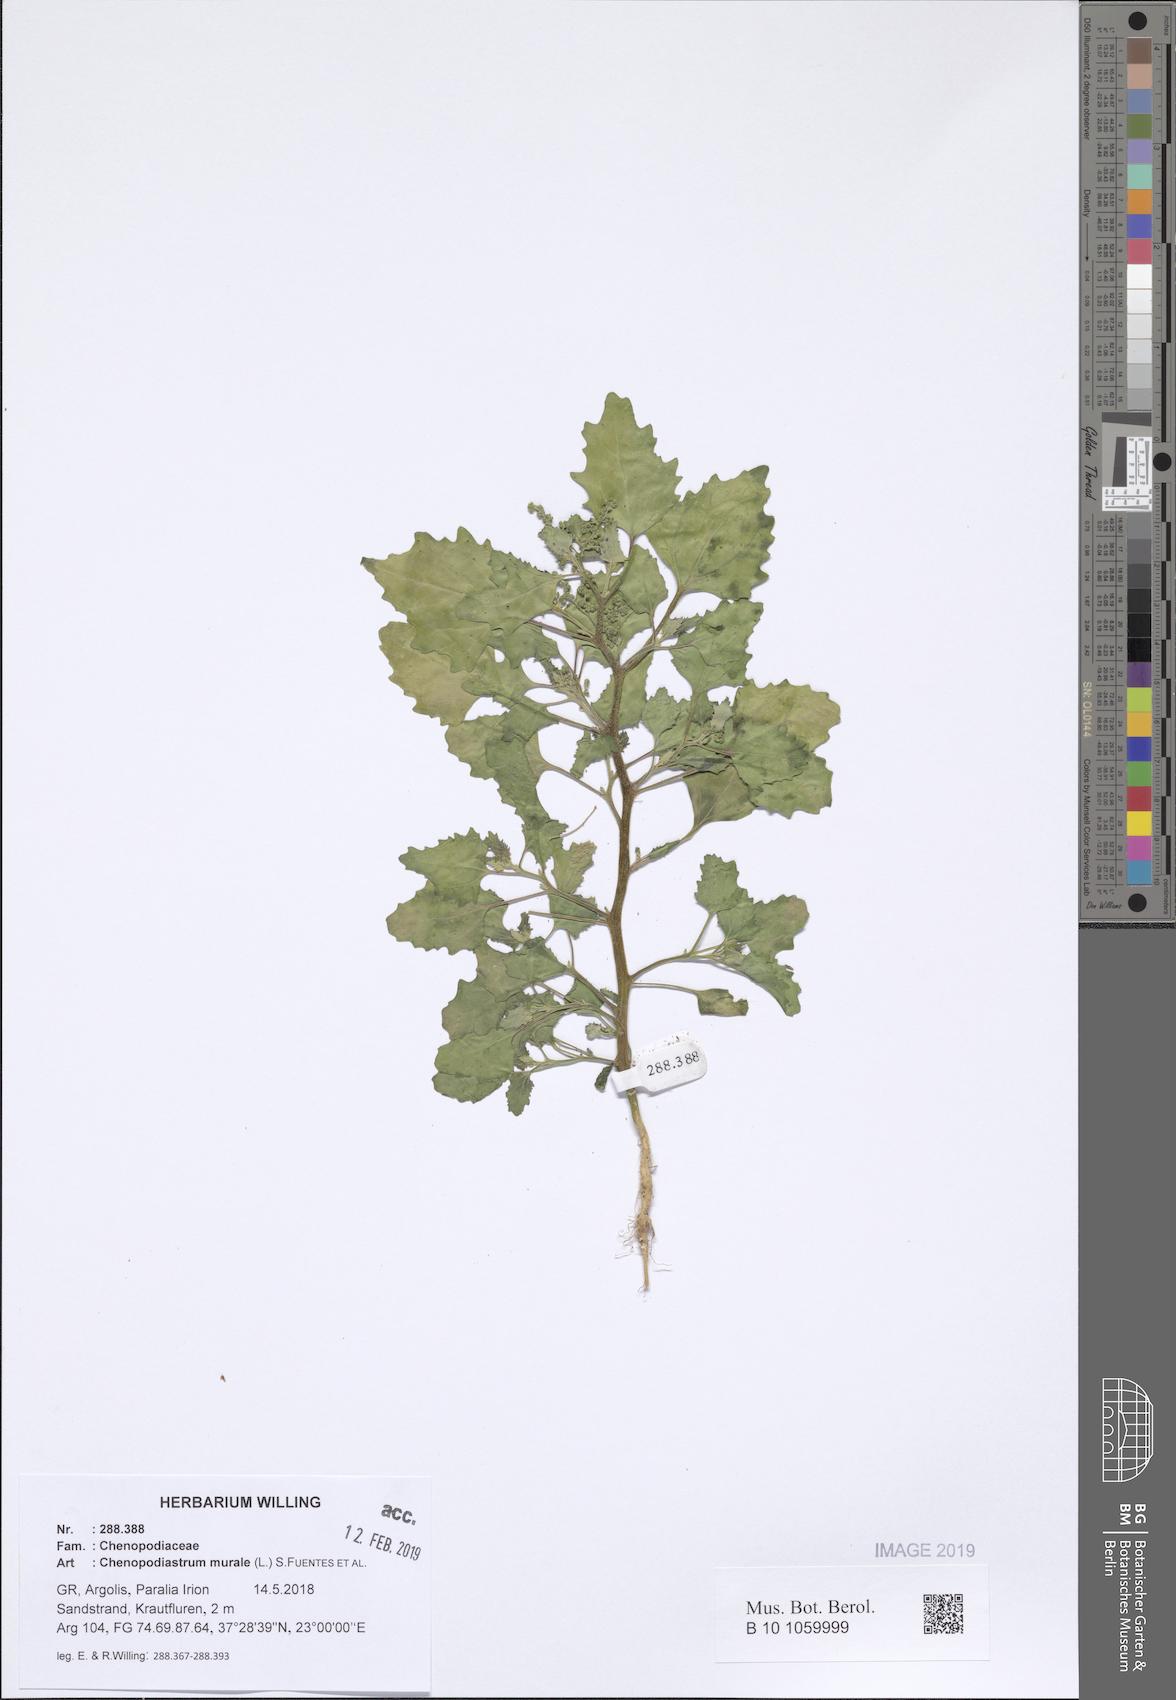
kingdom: Plantae
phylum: Tracheophyta
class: Magnoliopsida
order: Caryophyllales
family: Amaranthaceae
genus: Chenopodiastrum
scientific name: Chenopodiastrum murale
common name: Sowbane
